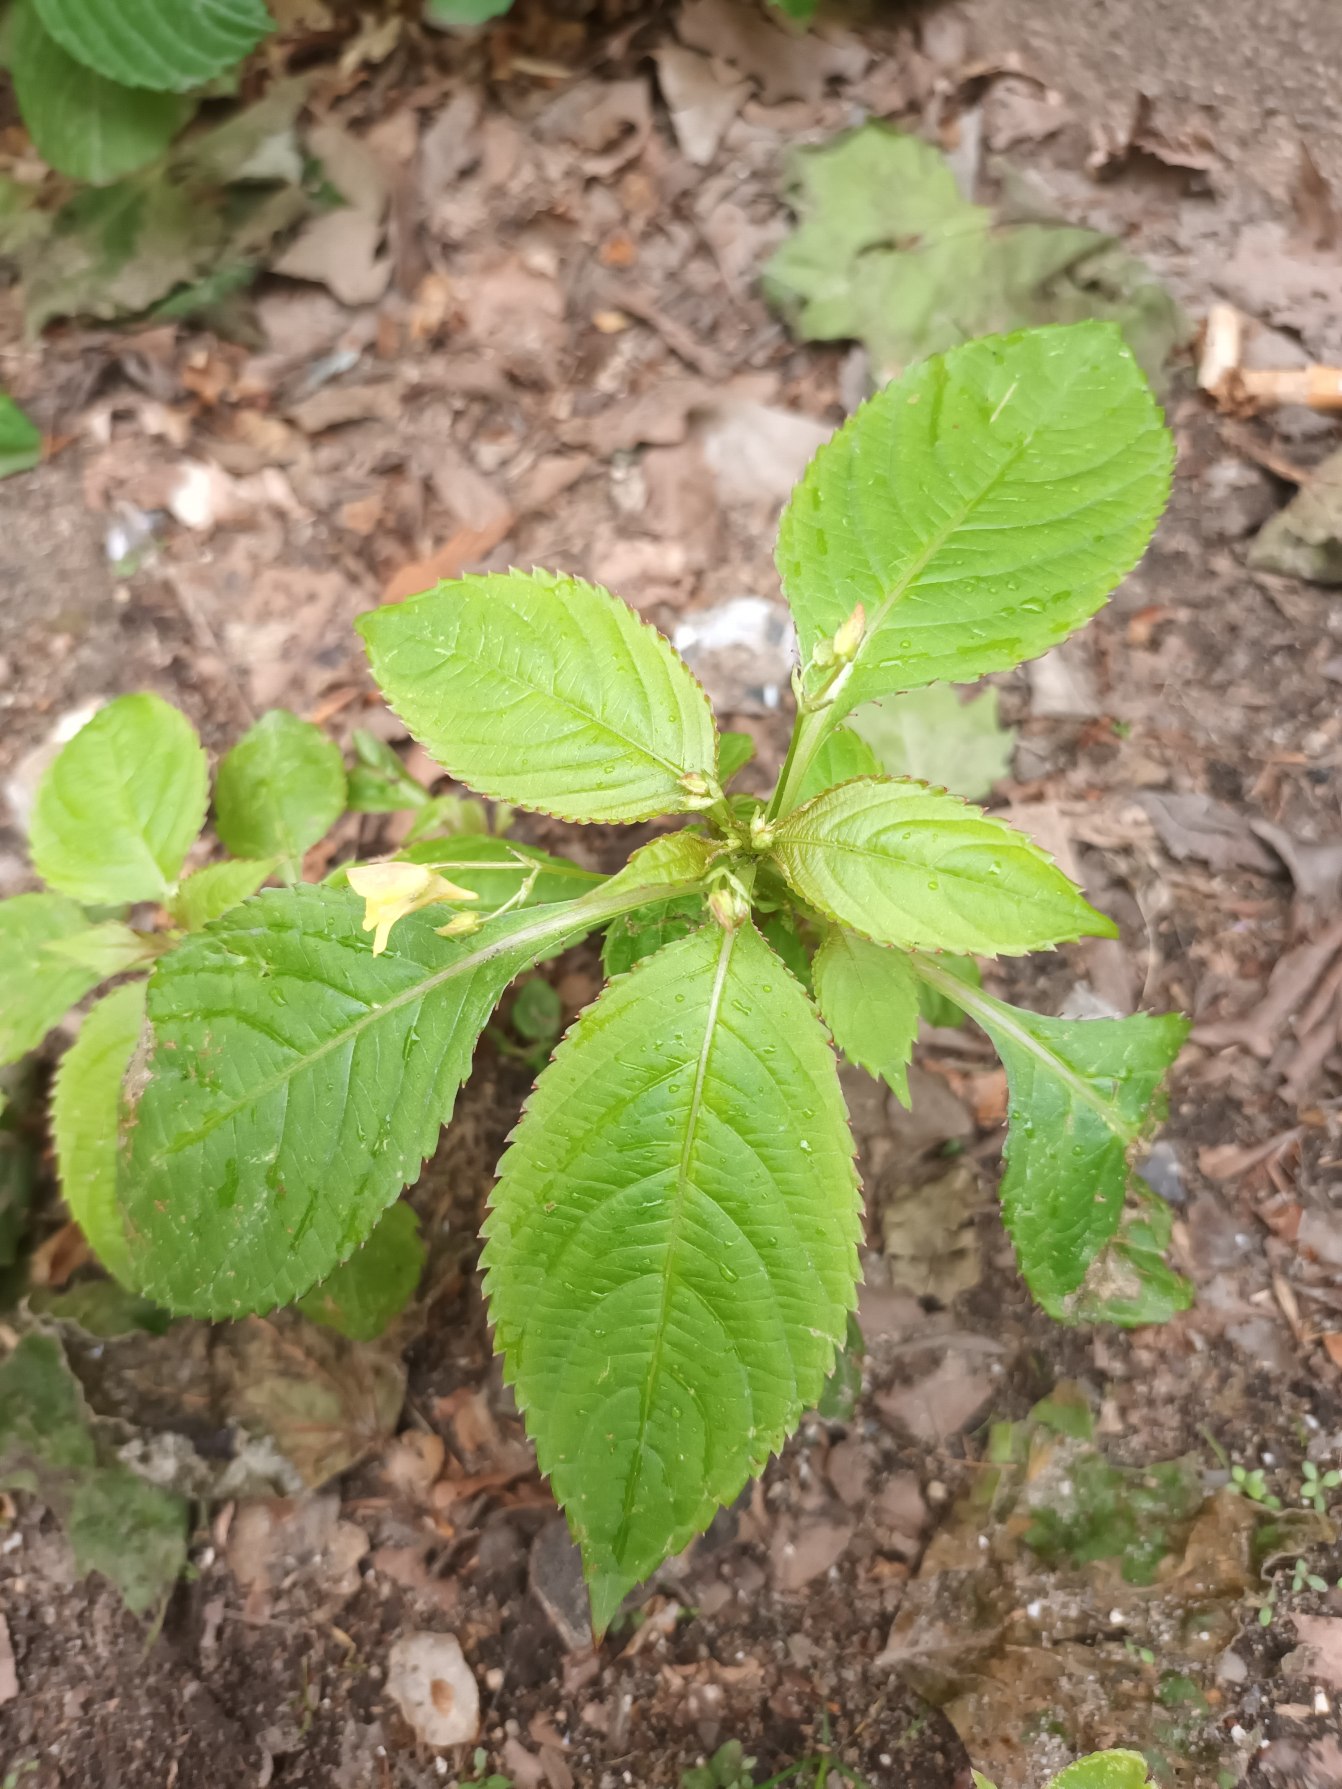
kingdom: Plantae
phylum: Tracheophyta
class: Magnoliopsida
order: Ericales
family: Balsaminaceae
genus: Impatiens
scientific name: Impatiens parviflora
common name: Småblomstret balsamin
